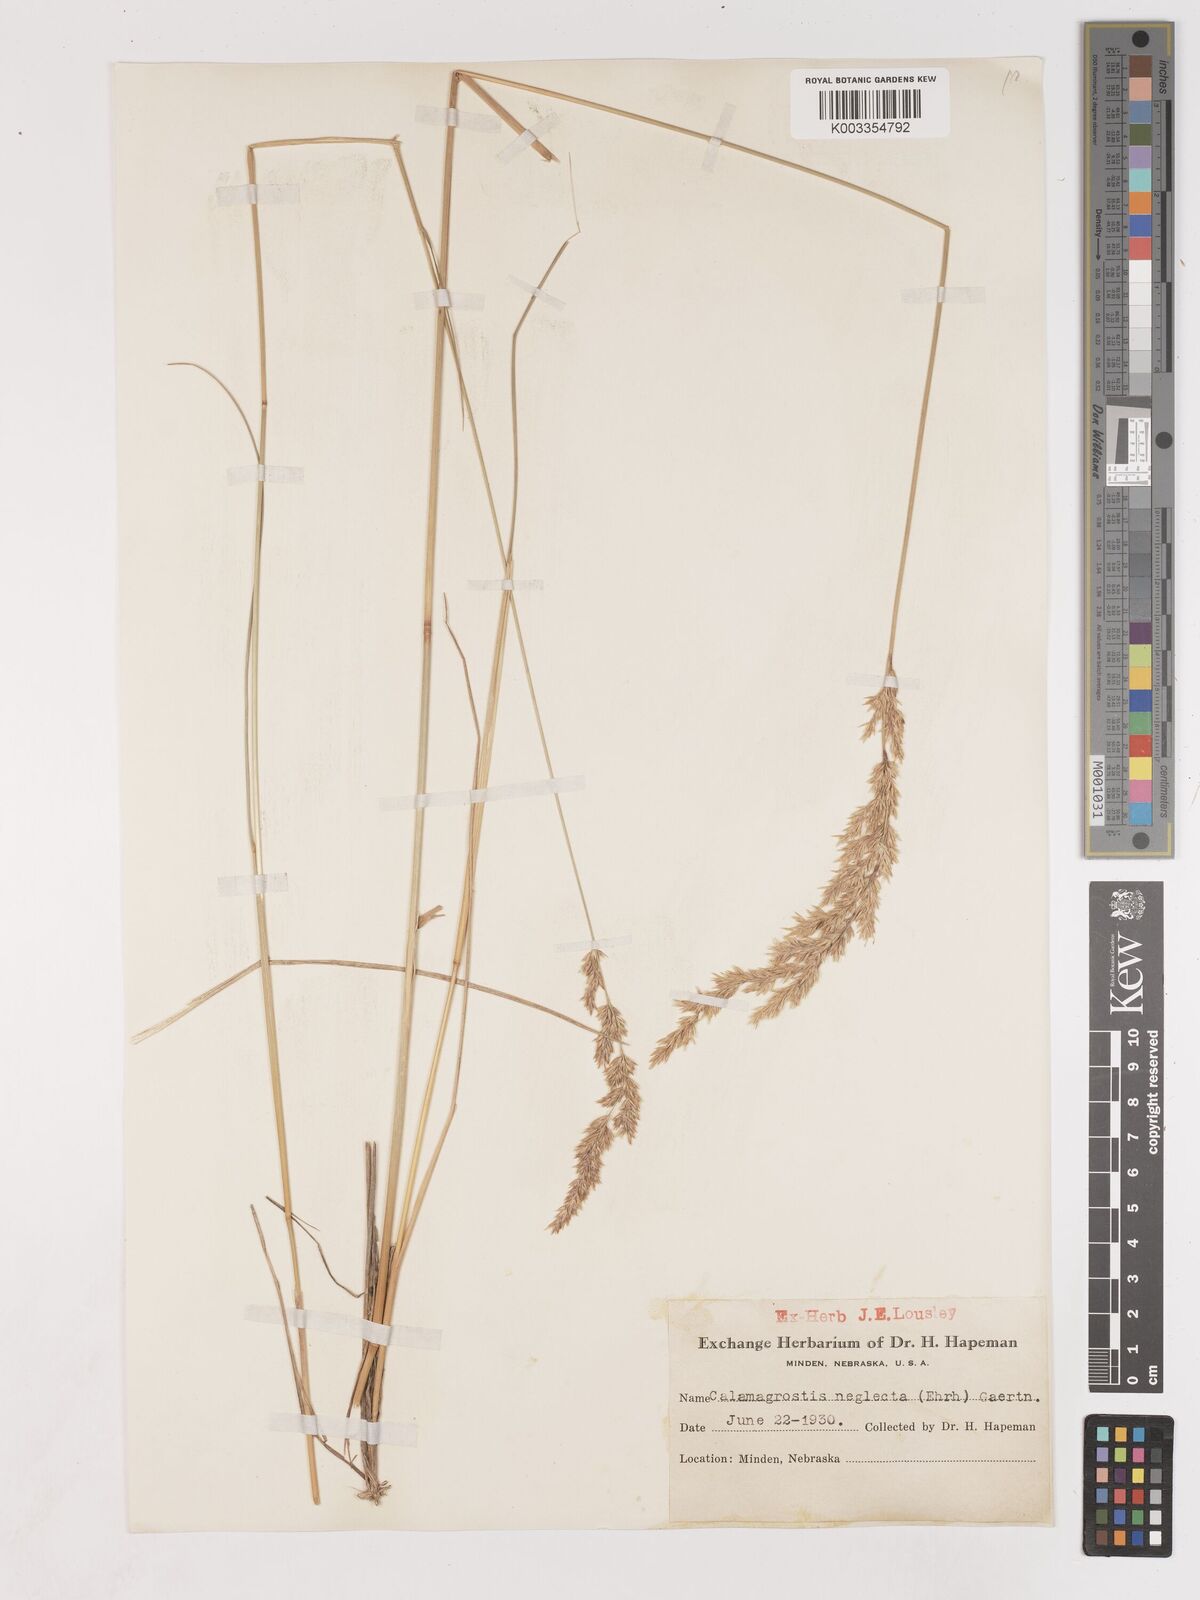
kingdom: Plantae
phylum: Tracheophyta
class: Liliopsida
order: Poales
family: Poaceae
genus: Cinnagrostis
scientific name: Cinnagrostis recta
